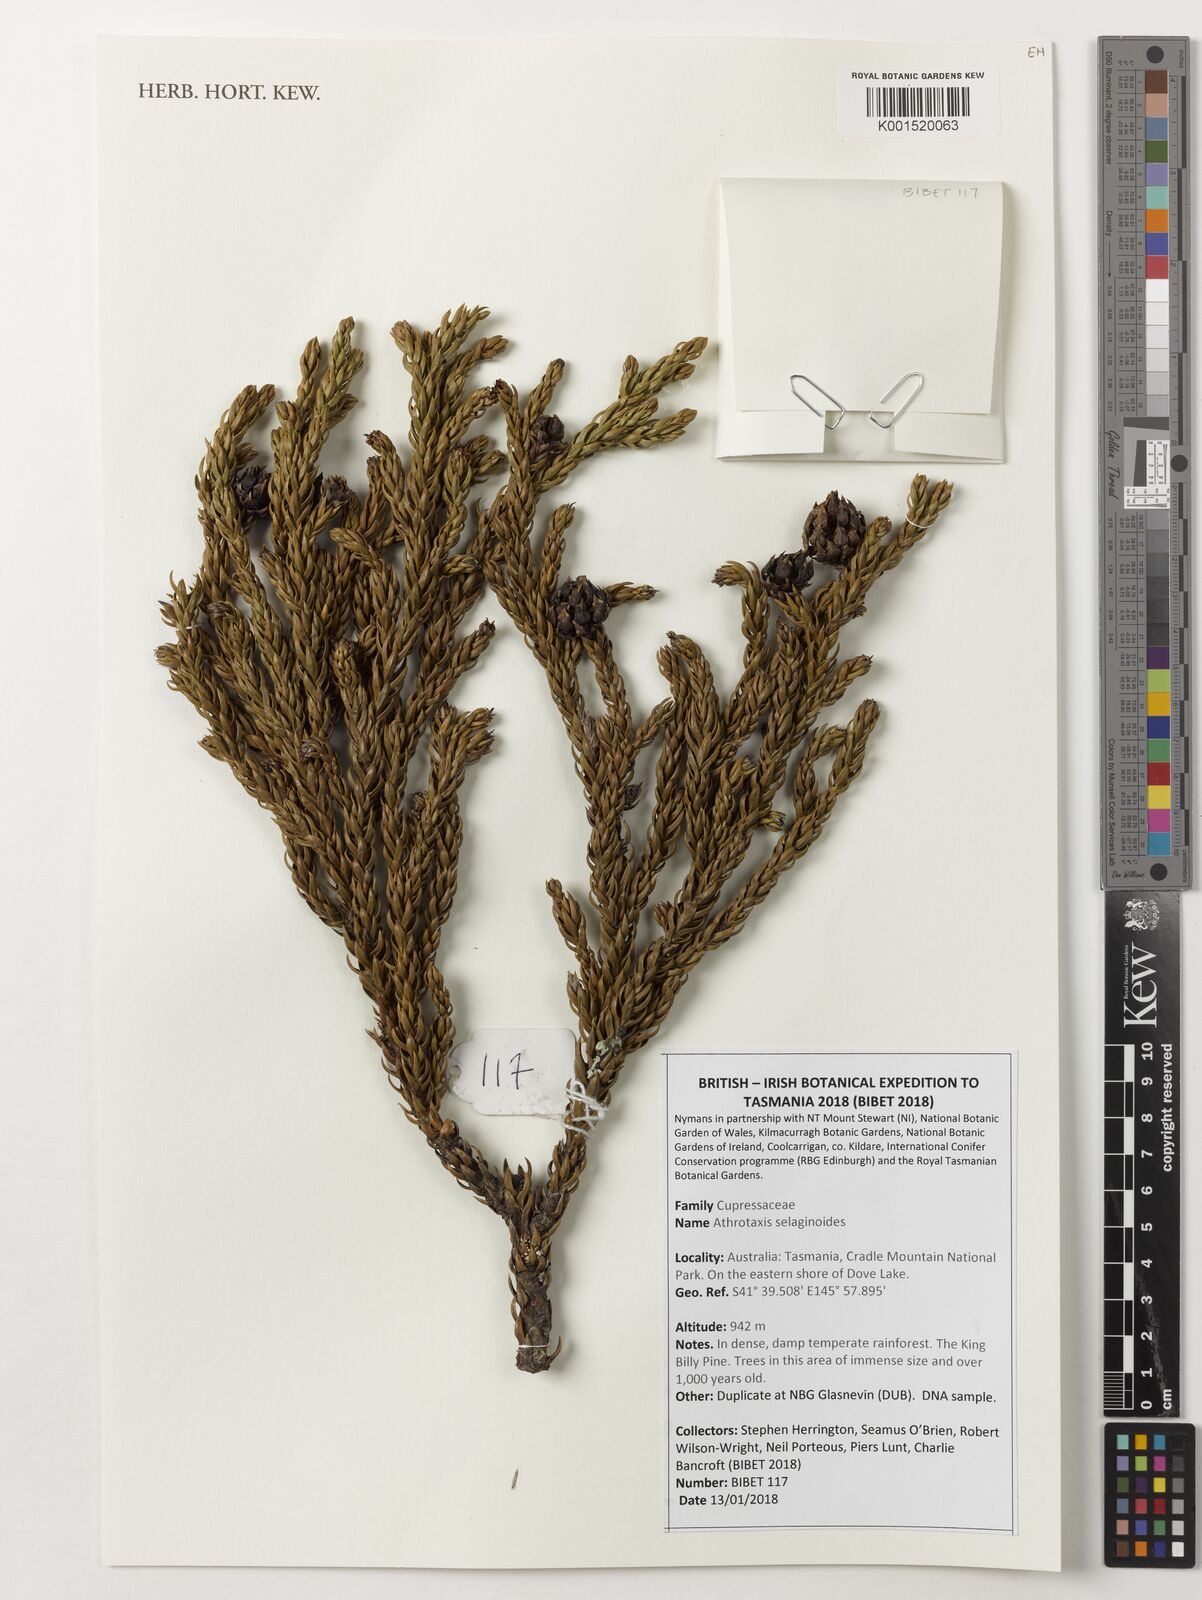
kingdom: Plantae
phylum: Tracheophyta
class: Pinopsida
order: Pinales
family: Cupressaceae
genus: Athrotaxis
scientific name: Athrotaxis selaginoides
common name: King william pine
